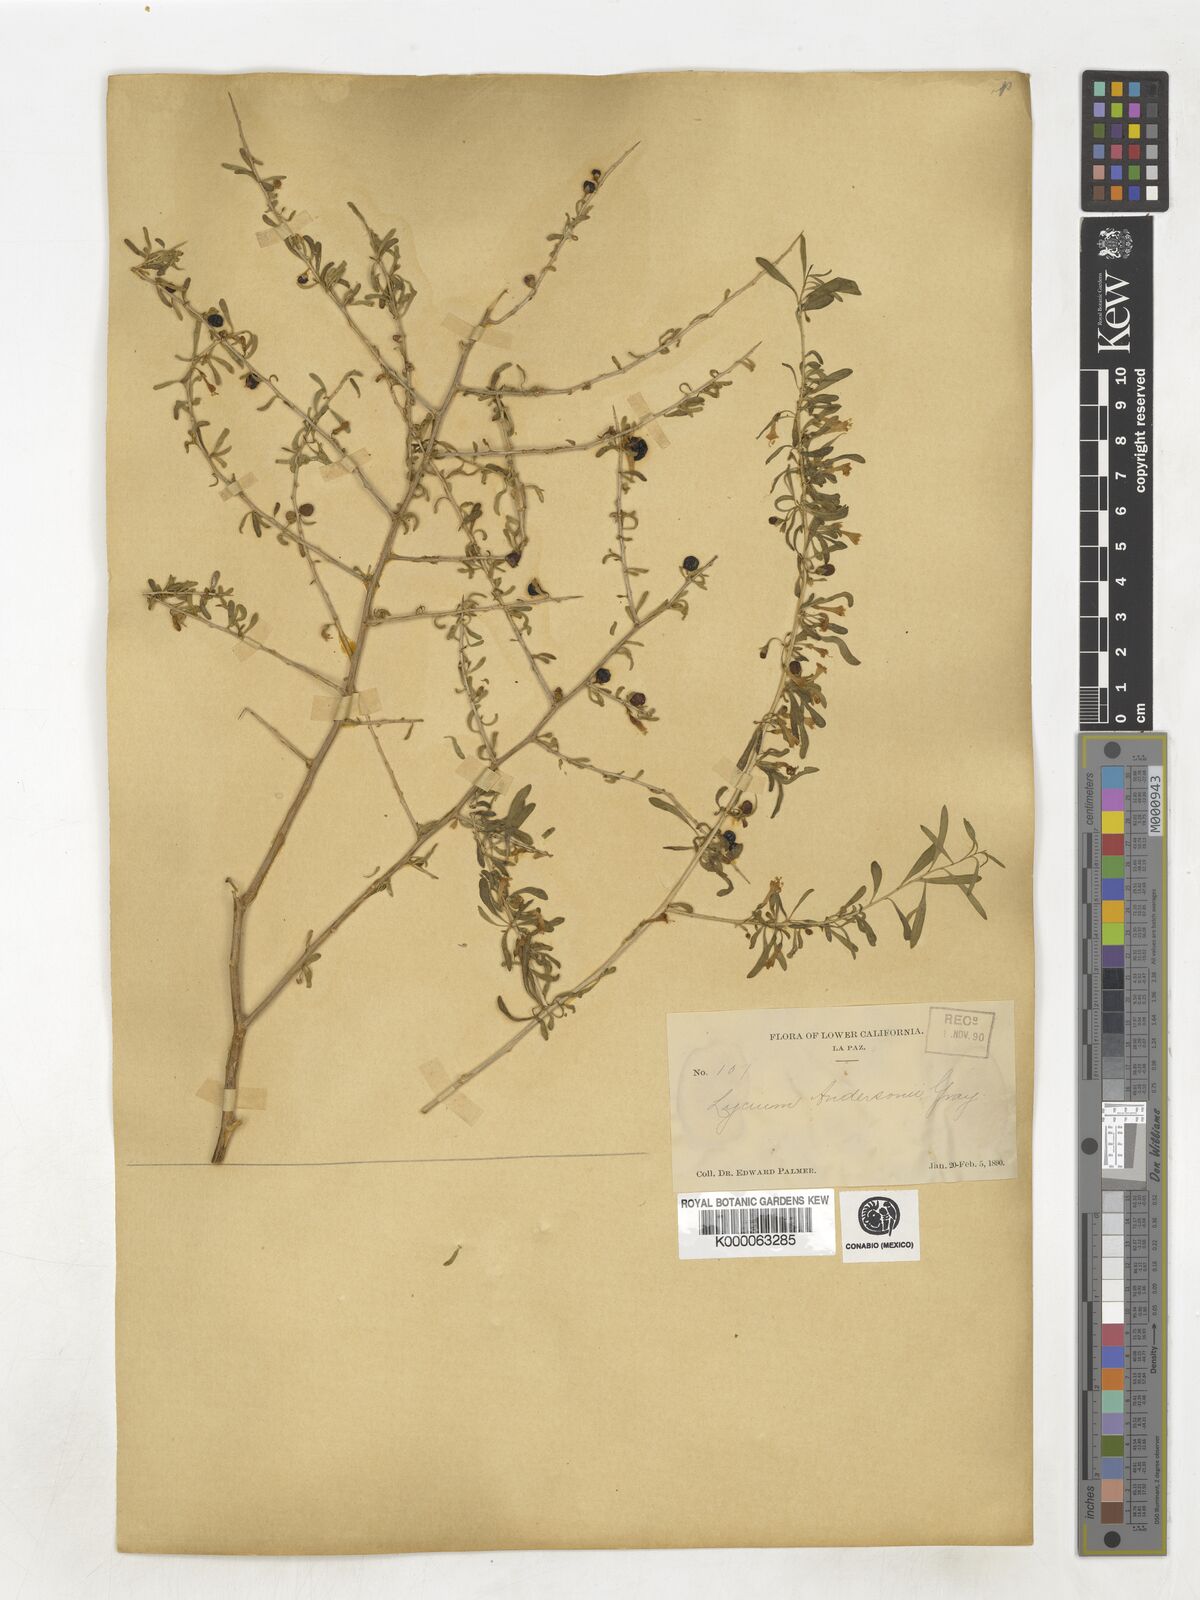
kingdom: Plantae
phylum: Tracheophyta
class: Magnoliopsida
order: Solanales
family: Solanaceae
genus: Lycium
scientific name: Lycium andersonii
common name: Water-jacket
